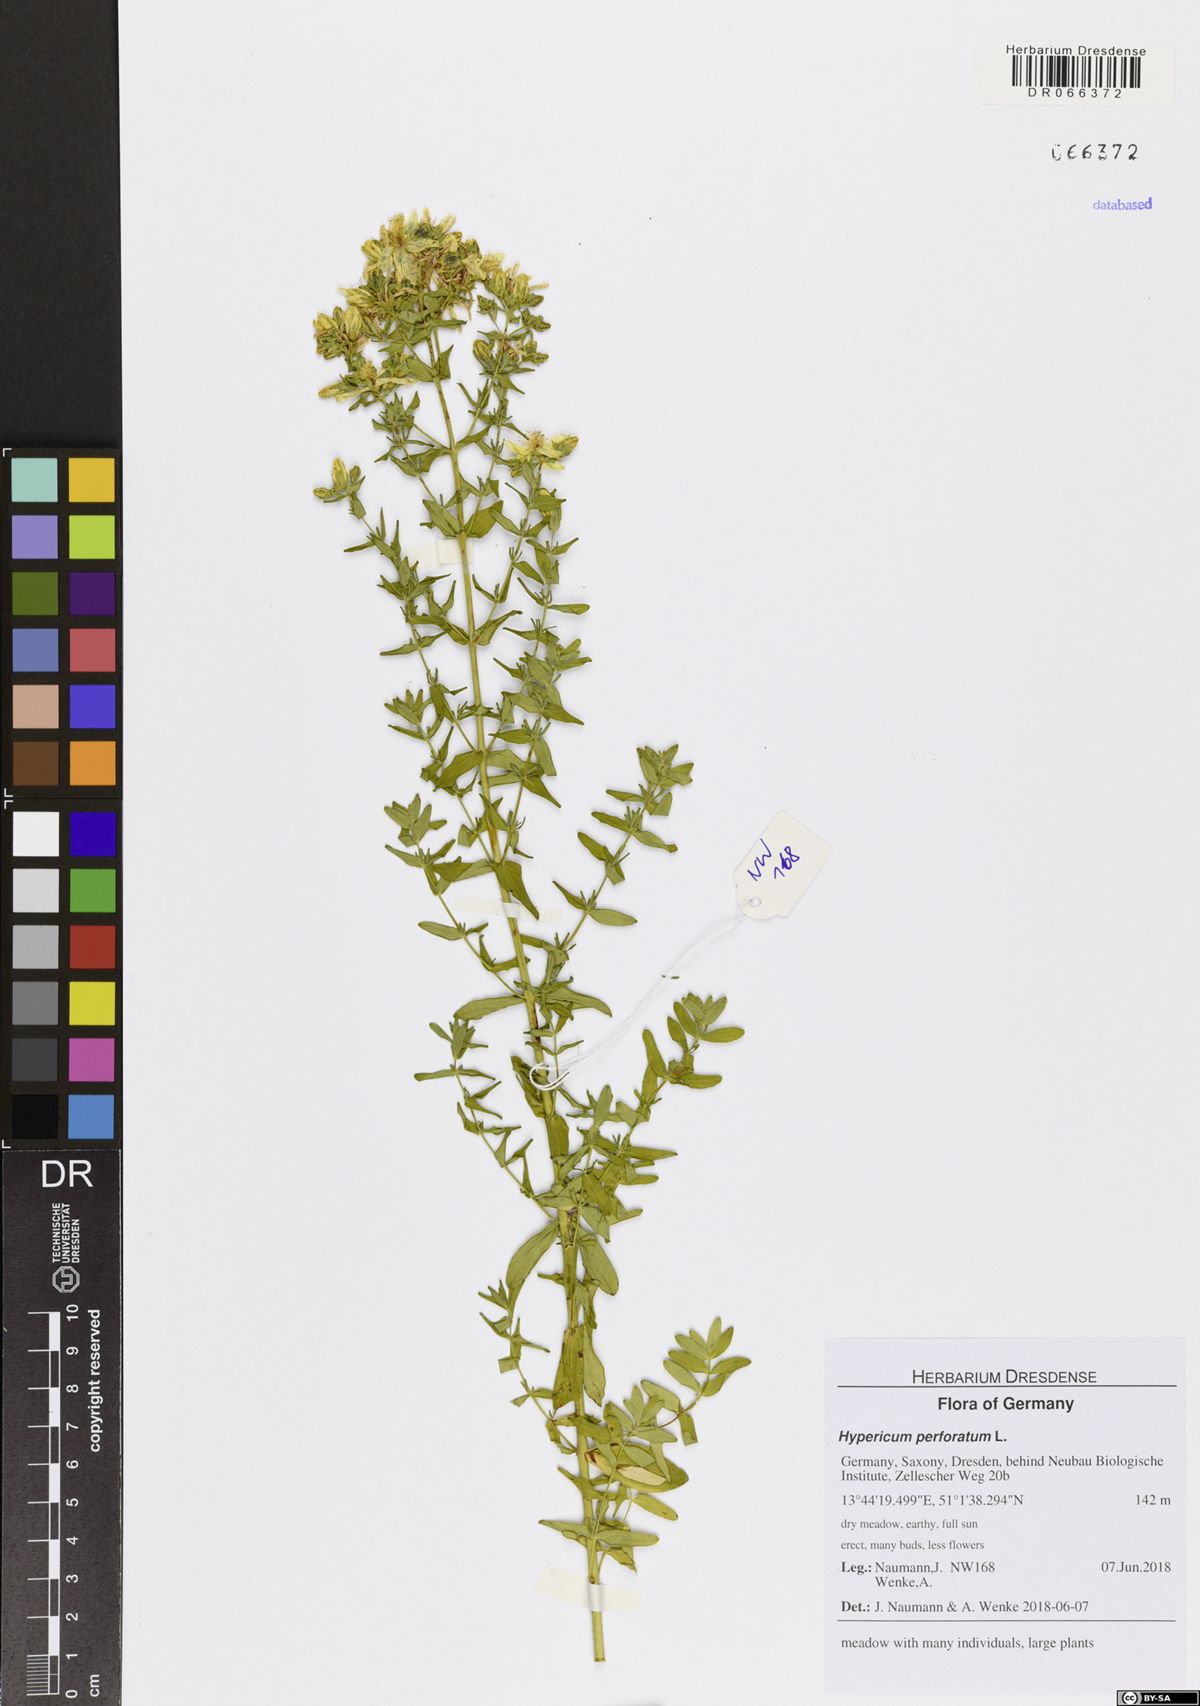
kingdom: Plantae
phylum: Tracheophyta
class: Magnoliopsida
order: Malpighiales
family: Hypericaceae
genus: Hypericum
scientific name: Hypericum perforatum
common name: Common st. johnswort
